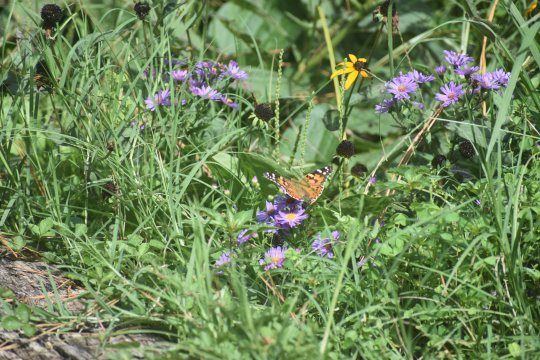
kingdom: Animalia
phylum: Arthropoda
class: Insecta
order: Lepidoptera
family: Nymphalidae
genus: Vanessa
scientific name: Vanessa cardui
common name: Painted Lady
